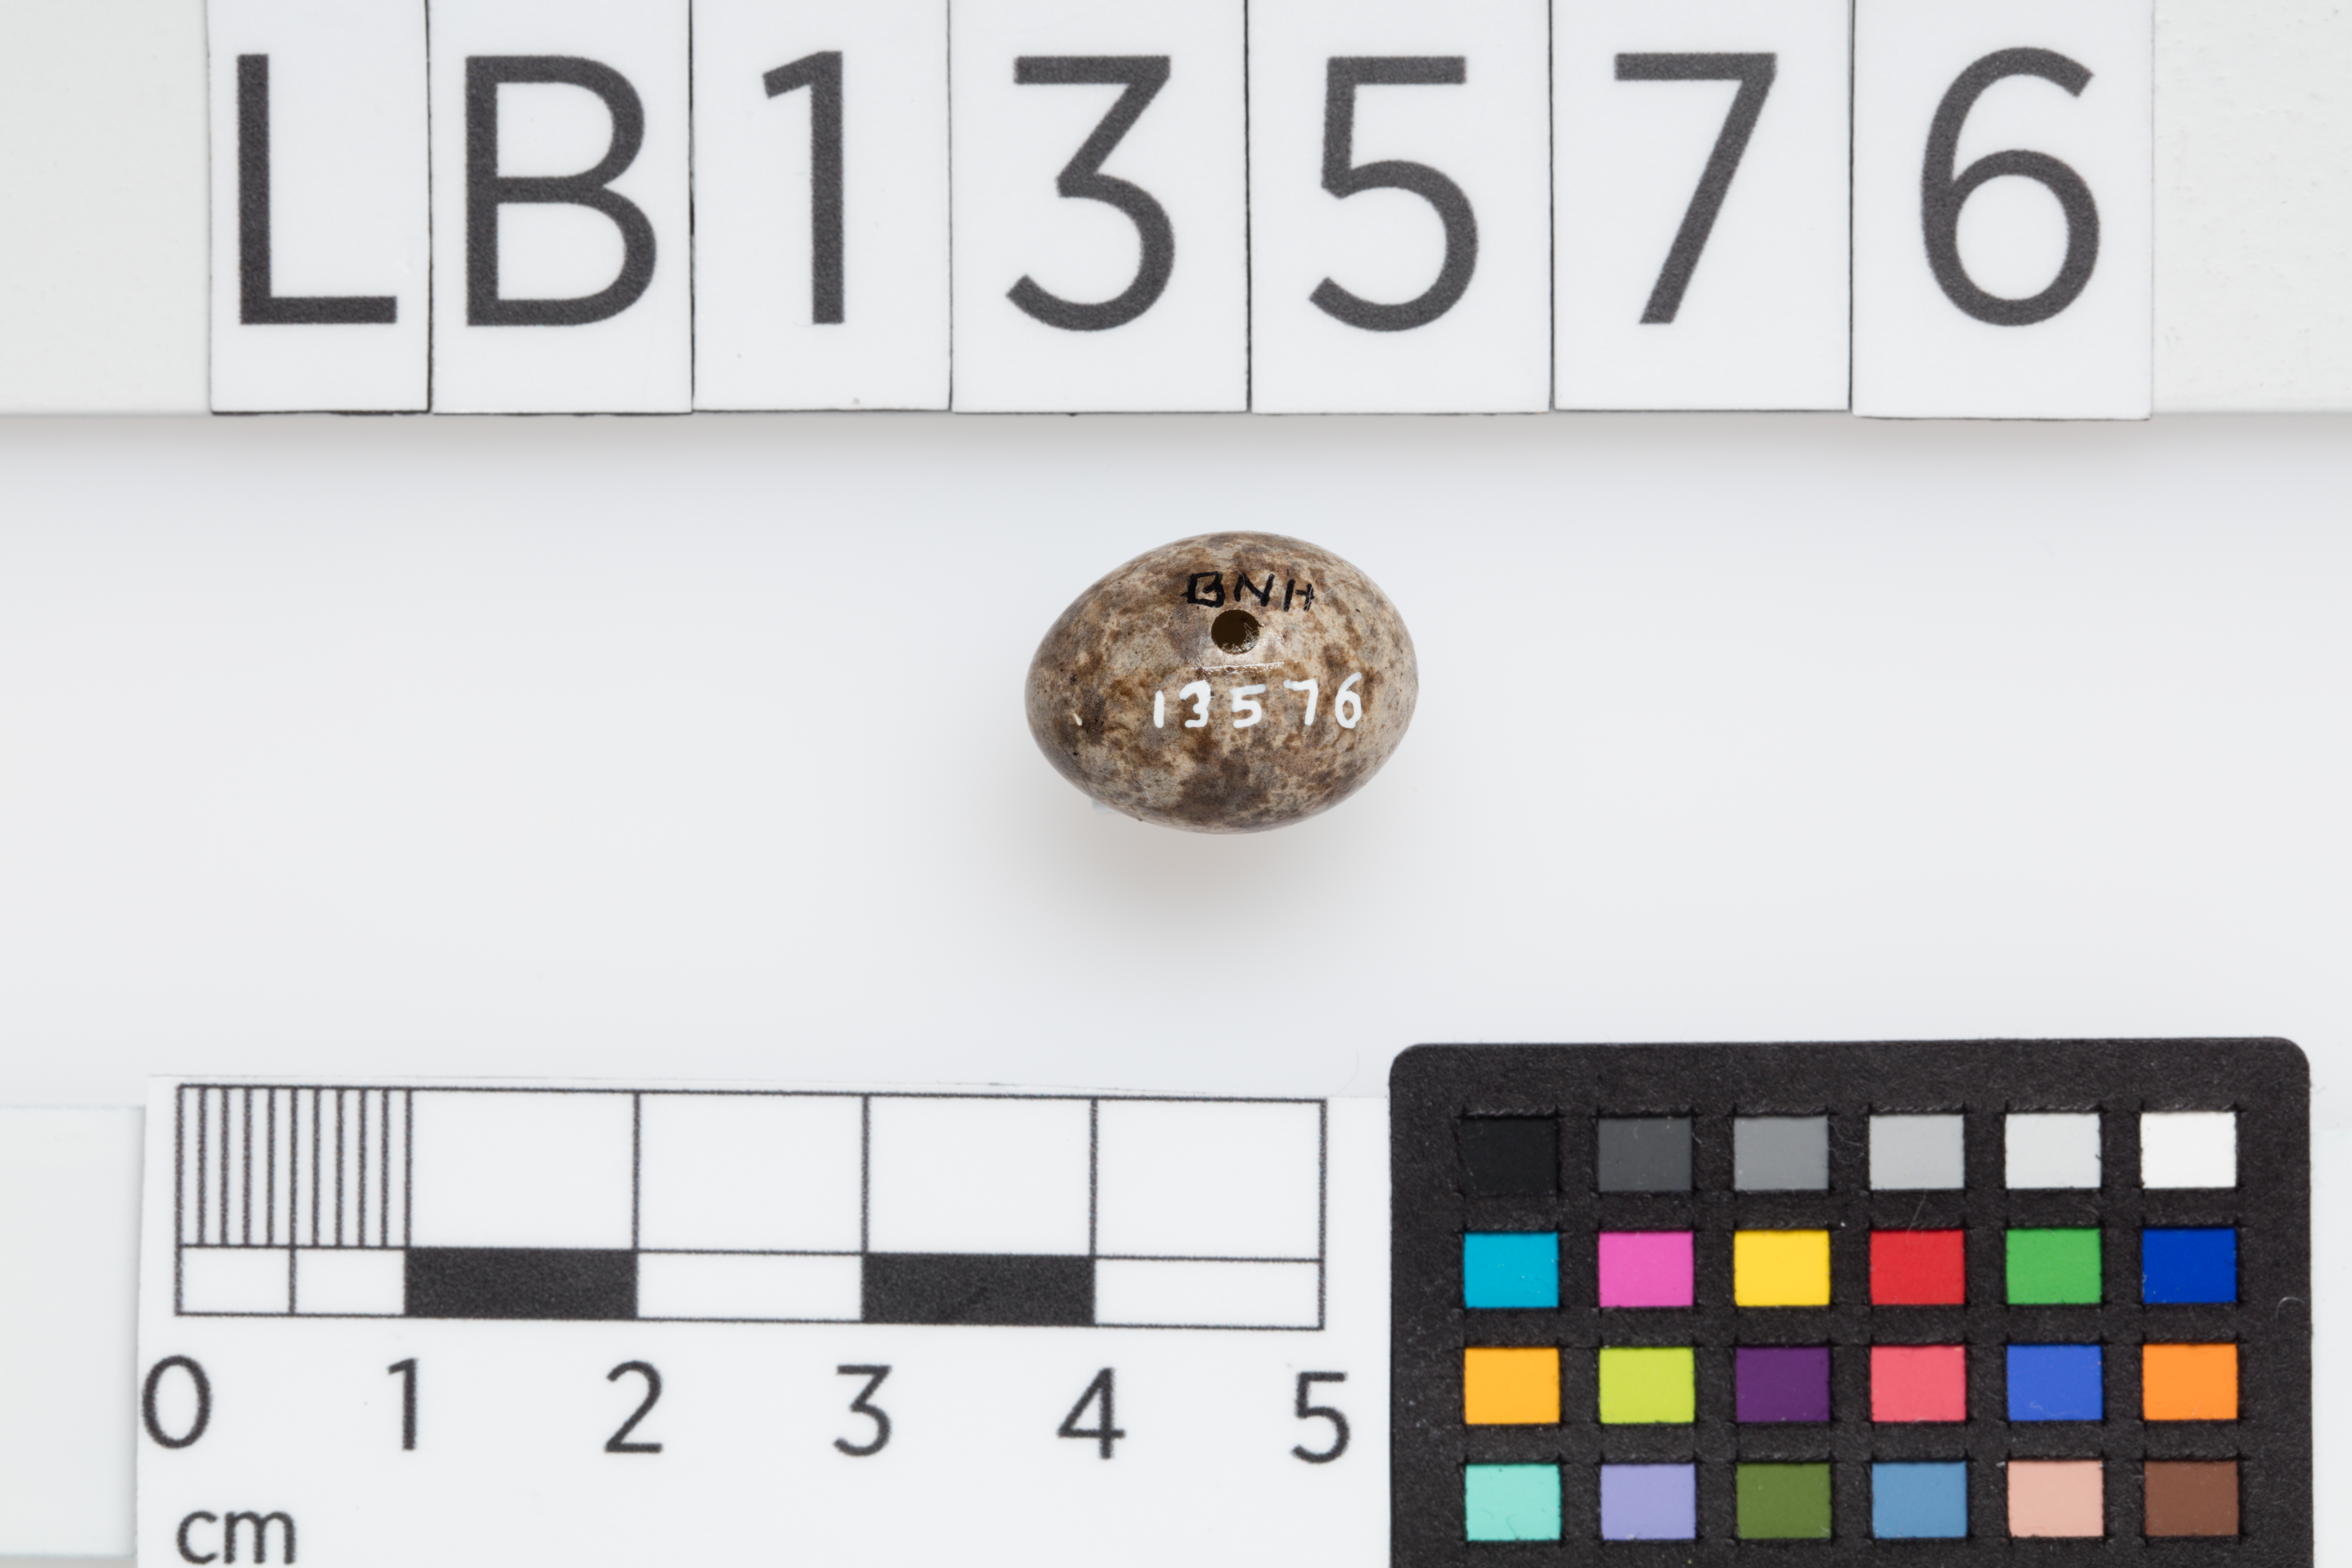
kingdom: Animalia
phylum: Chordata
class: Aves
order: Passeriformes
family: Motacillidae
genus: Anthus
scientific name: Anthus novaeseelandiae
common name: New zealand pipit
